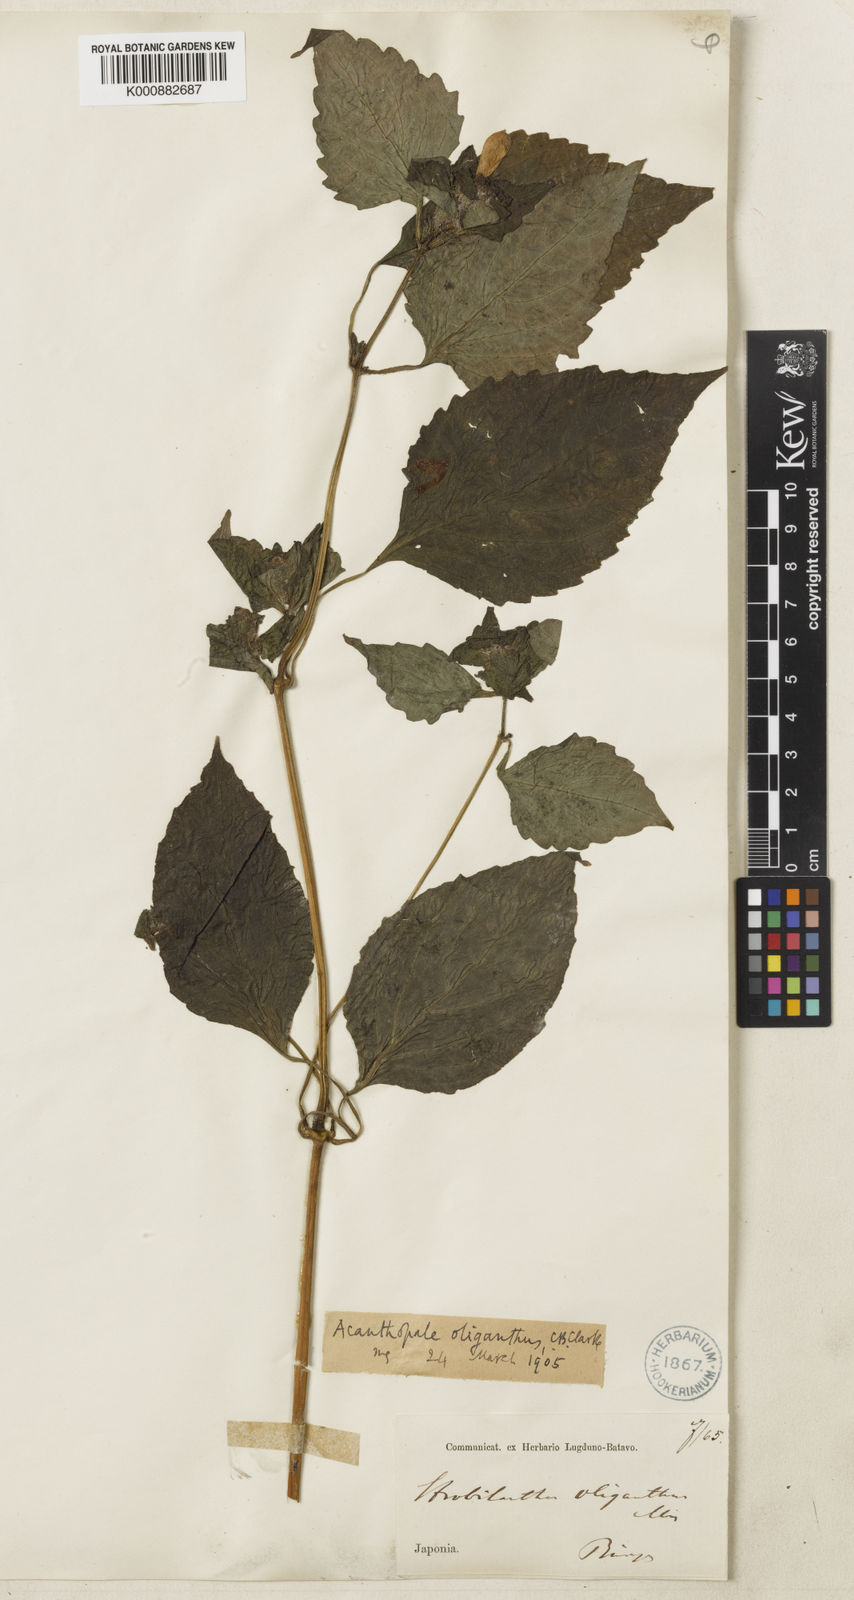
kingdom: Plantae
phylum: Tracheophyta
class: Magnoliopsida
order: Lamiales
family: Acanthaceae
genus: Strobilanthes
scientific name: Strobilanthes oligantha
